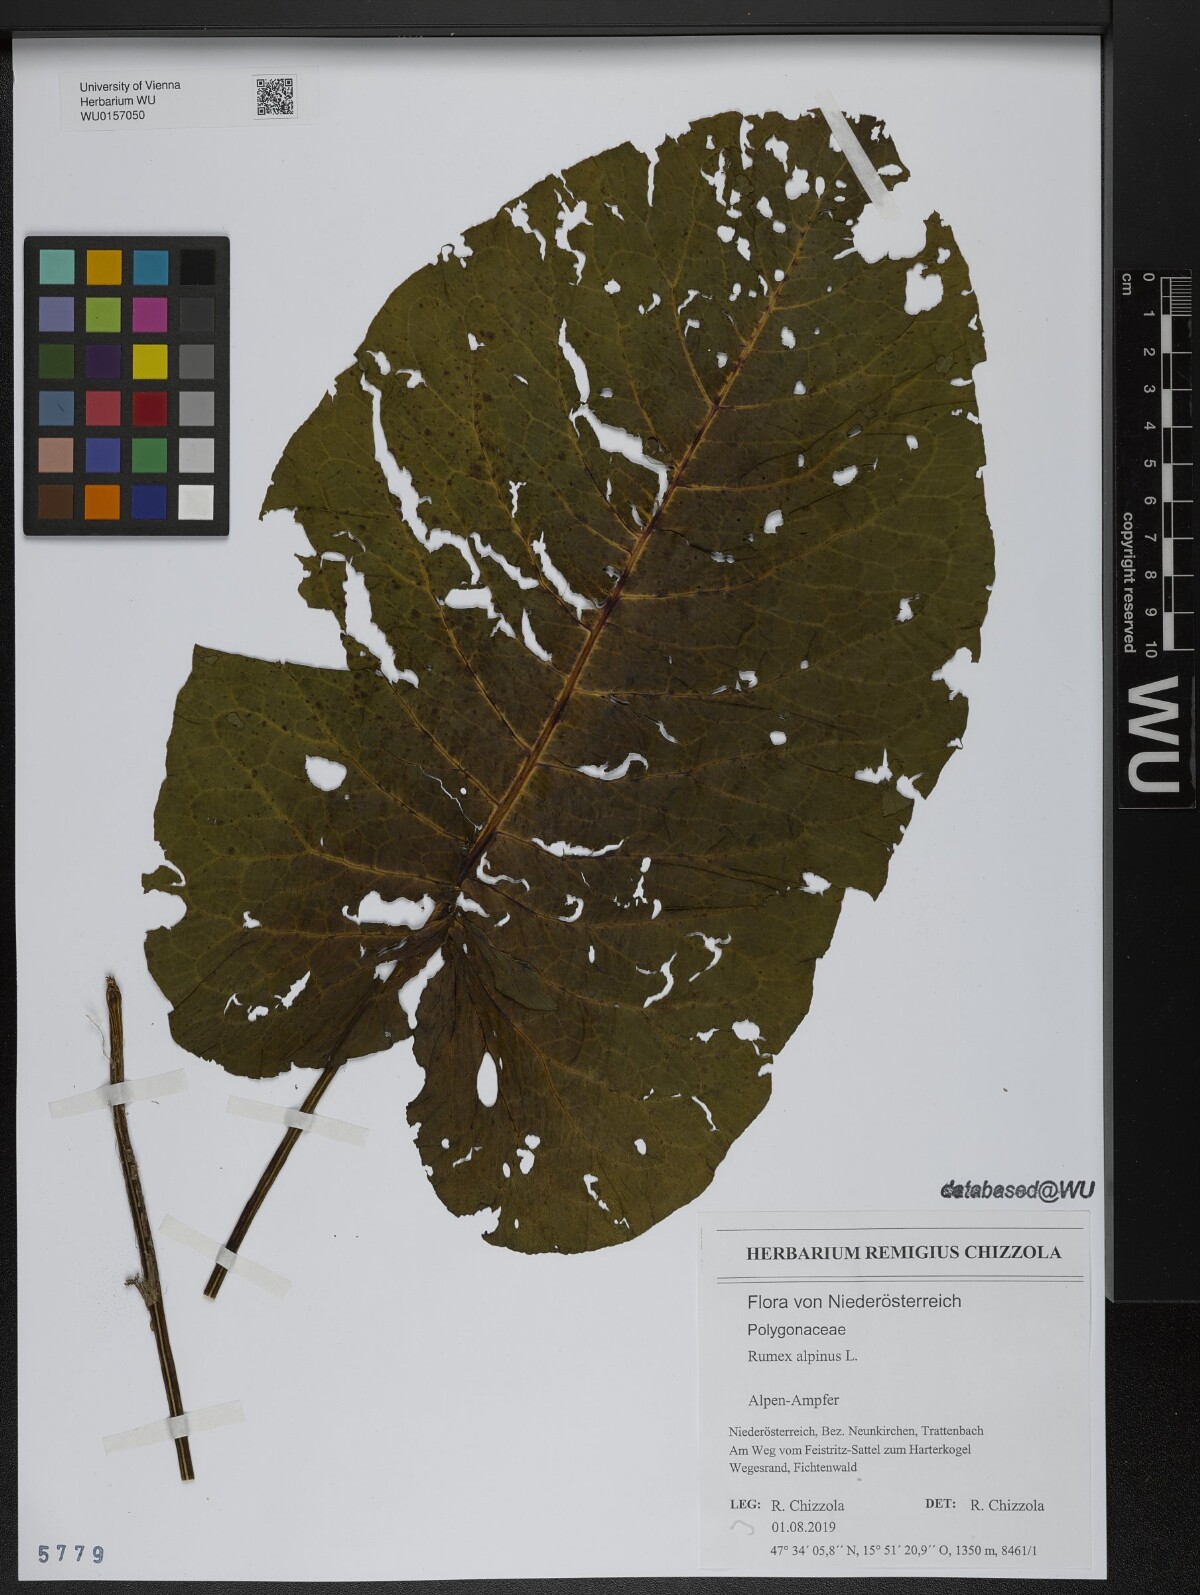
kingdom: Plantae
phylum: Tracheophyta
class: Magnoliopsida
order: Caryophyllales
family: Polygonaceae
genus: Rumex
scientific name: Rumex alpinus
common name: Alpine dock
